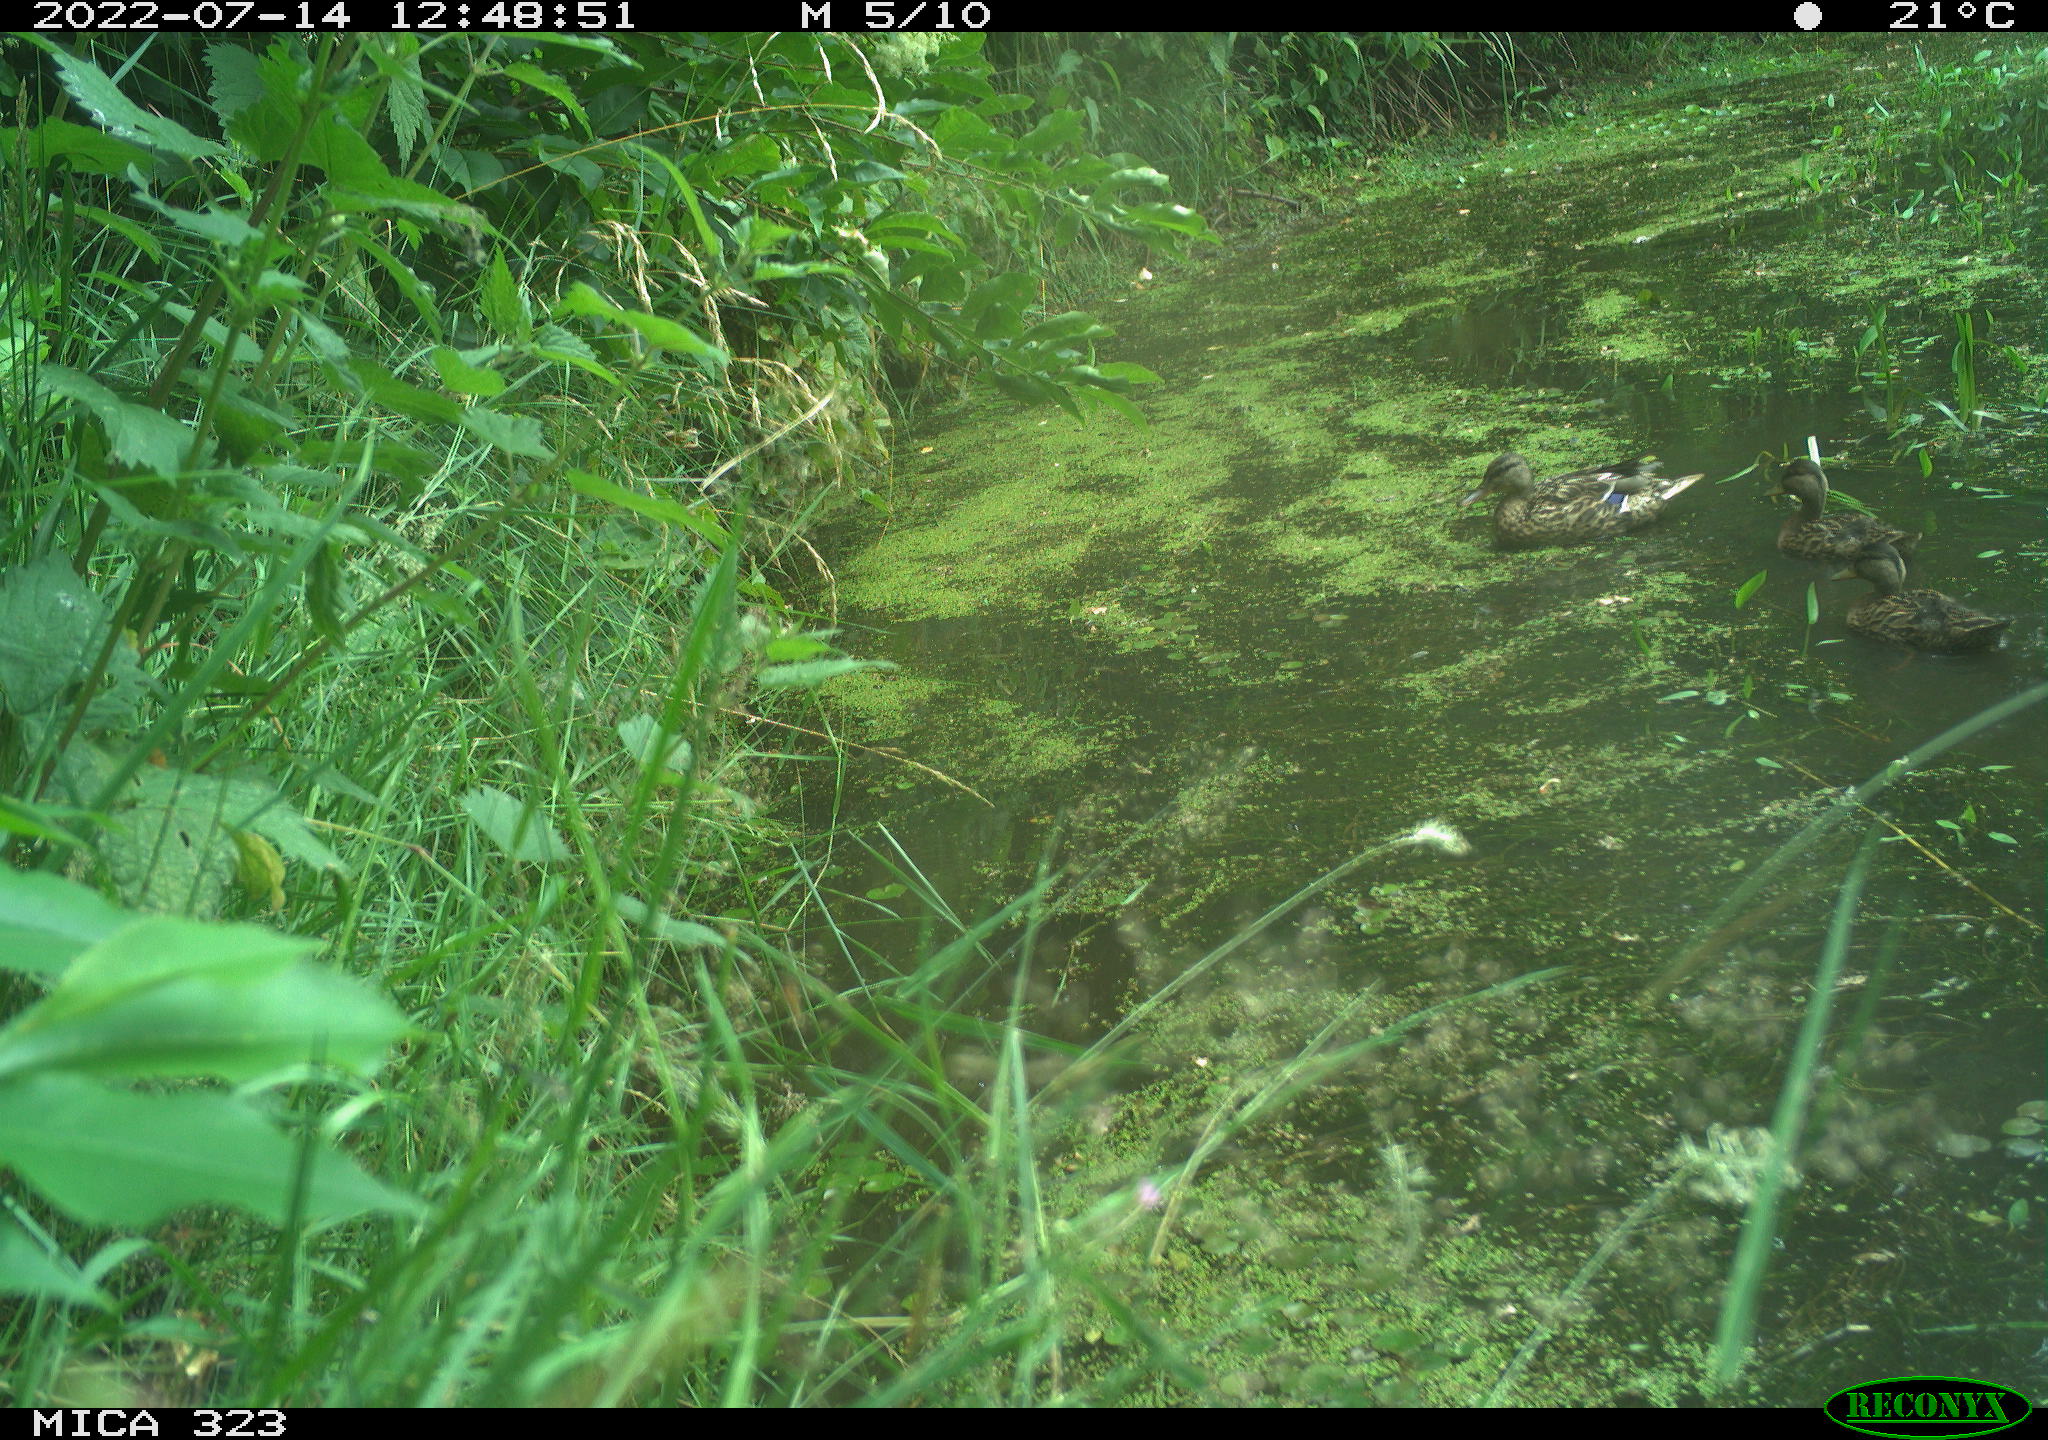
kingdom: Animalia
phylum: Chordata
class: Aves
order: Anseriformes
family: Anatidae
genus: Anas
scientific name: Anas platyrhynchos
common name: Mallard
